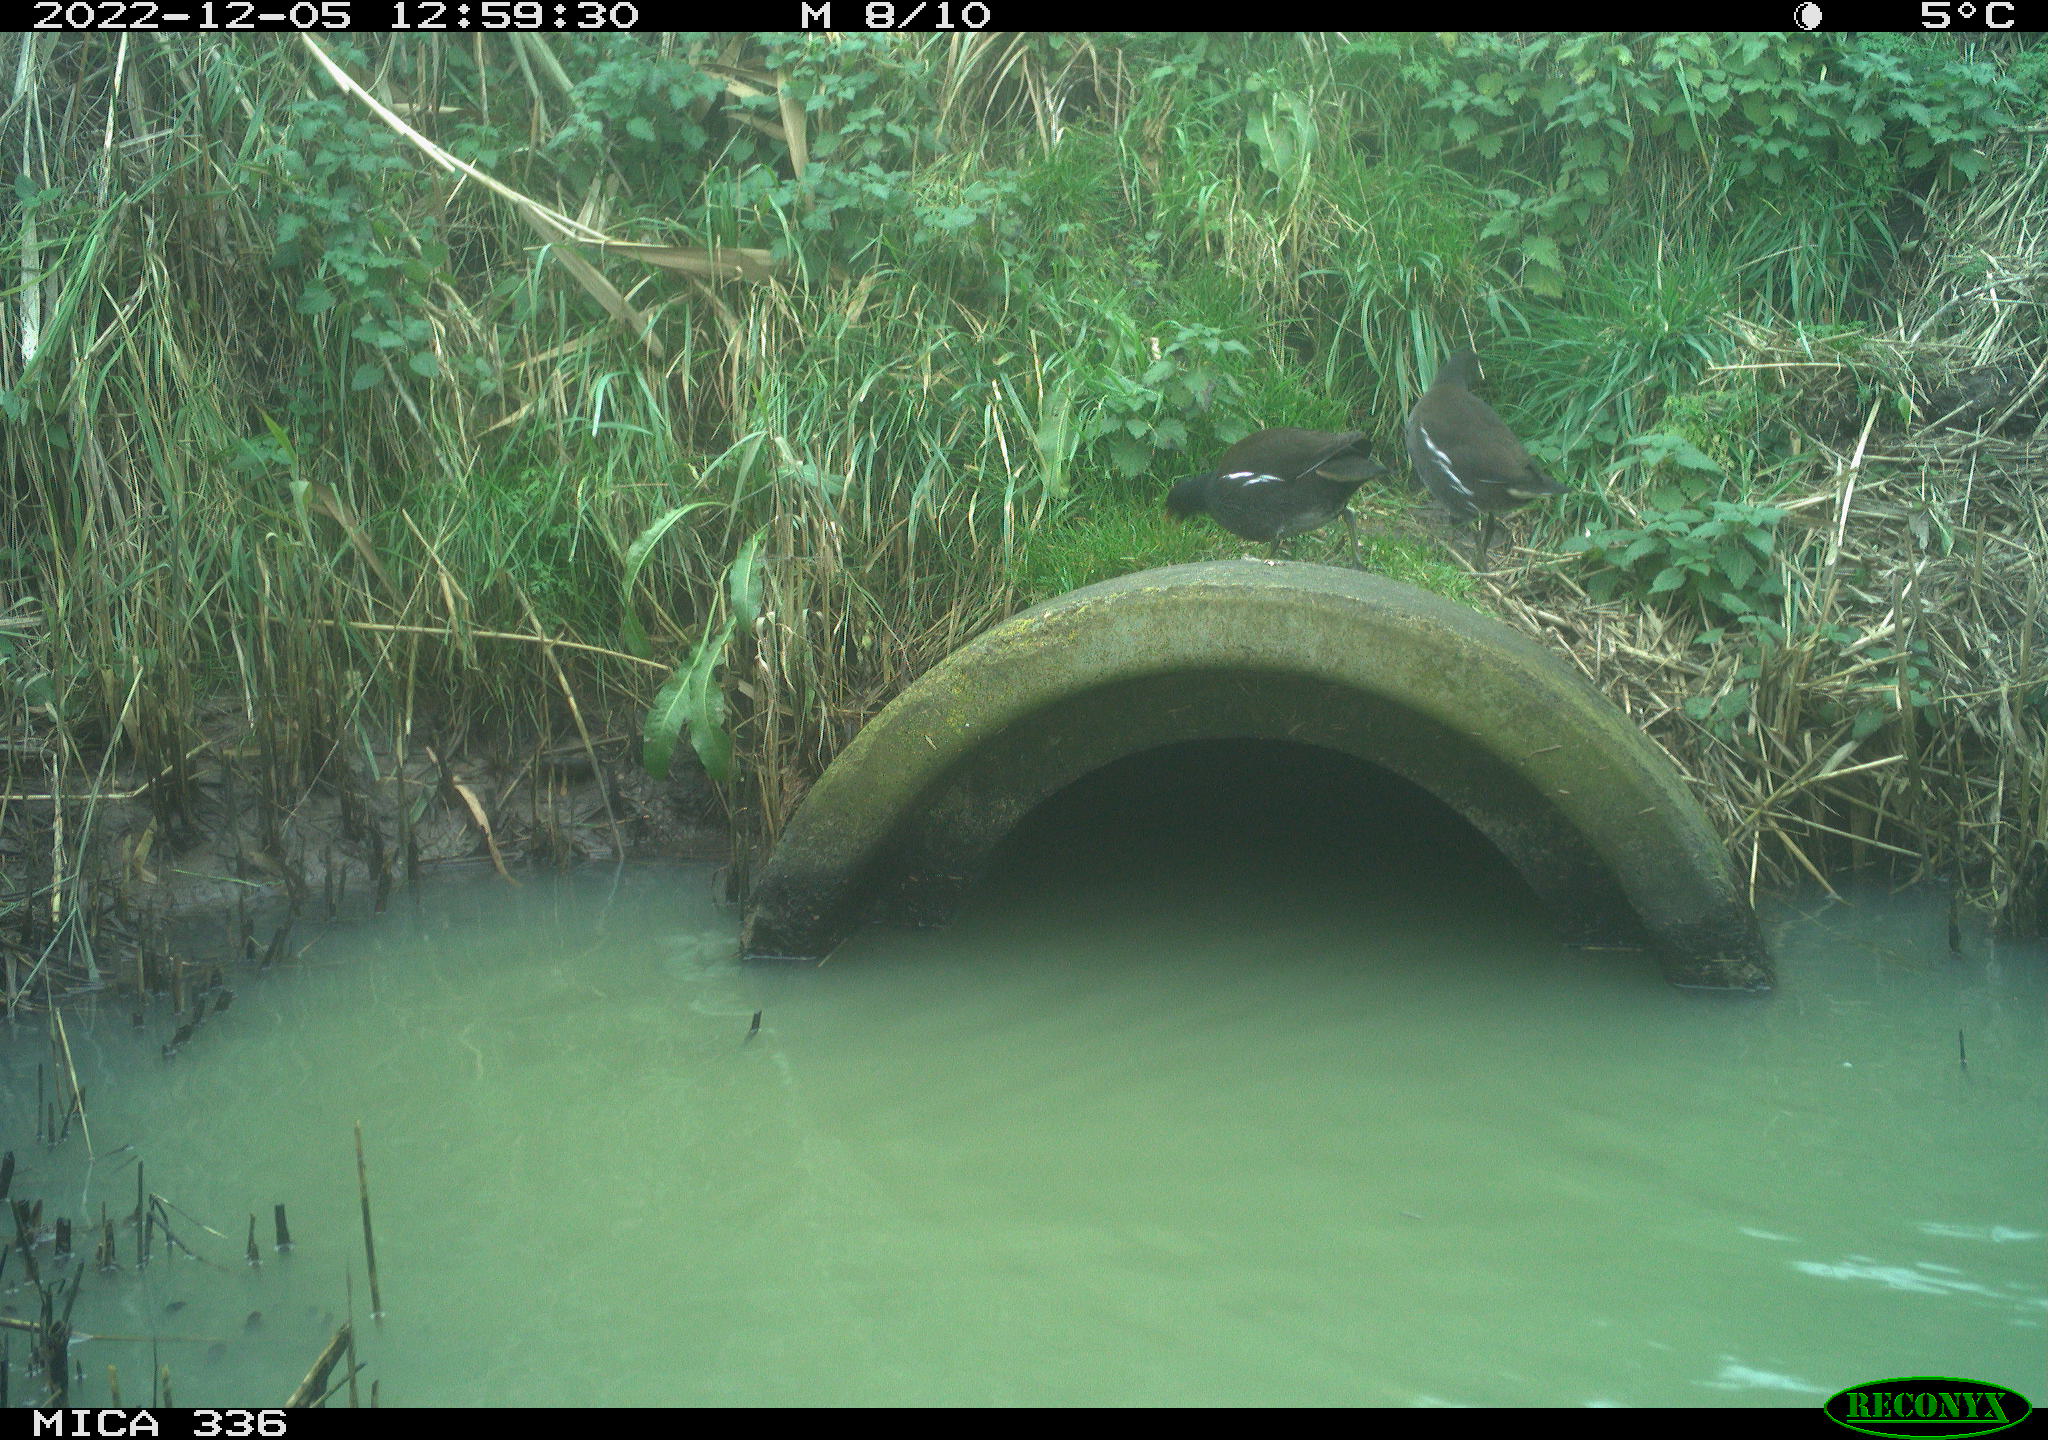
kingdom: Animalia
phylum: Chordata
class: Aves
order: Gruiformes
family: Rallidae
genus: Gallinula
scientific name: Gallinula chloropus
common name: Common moorhen
